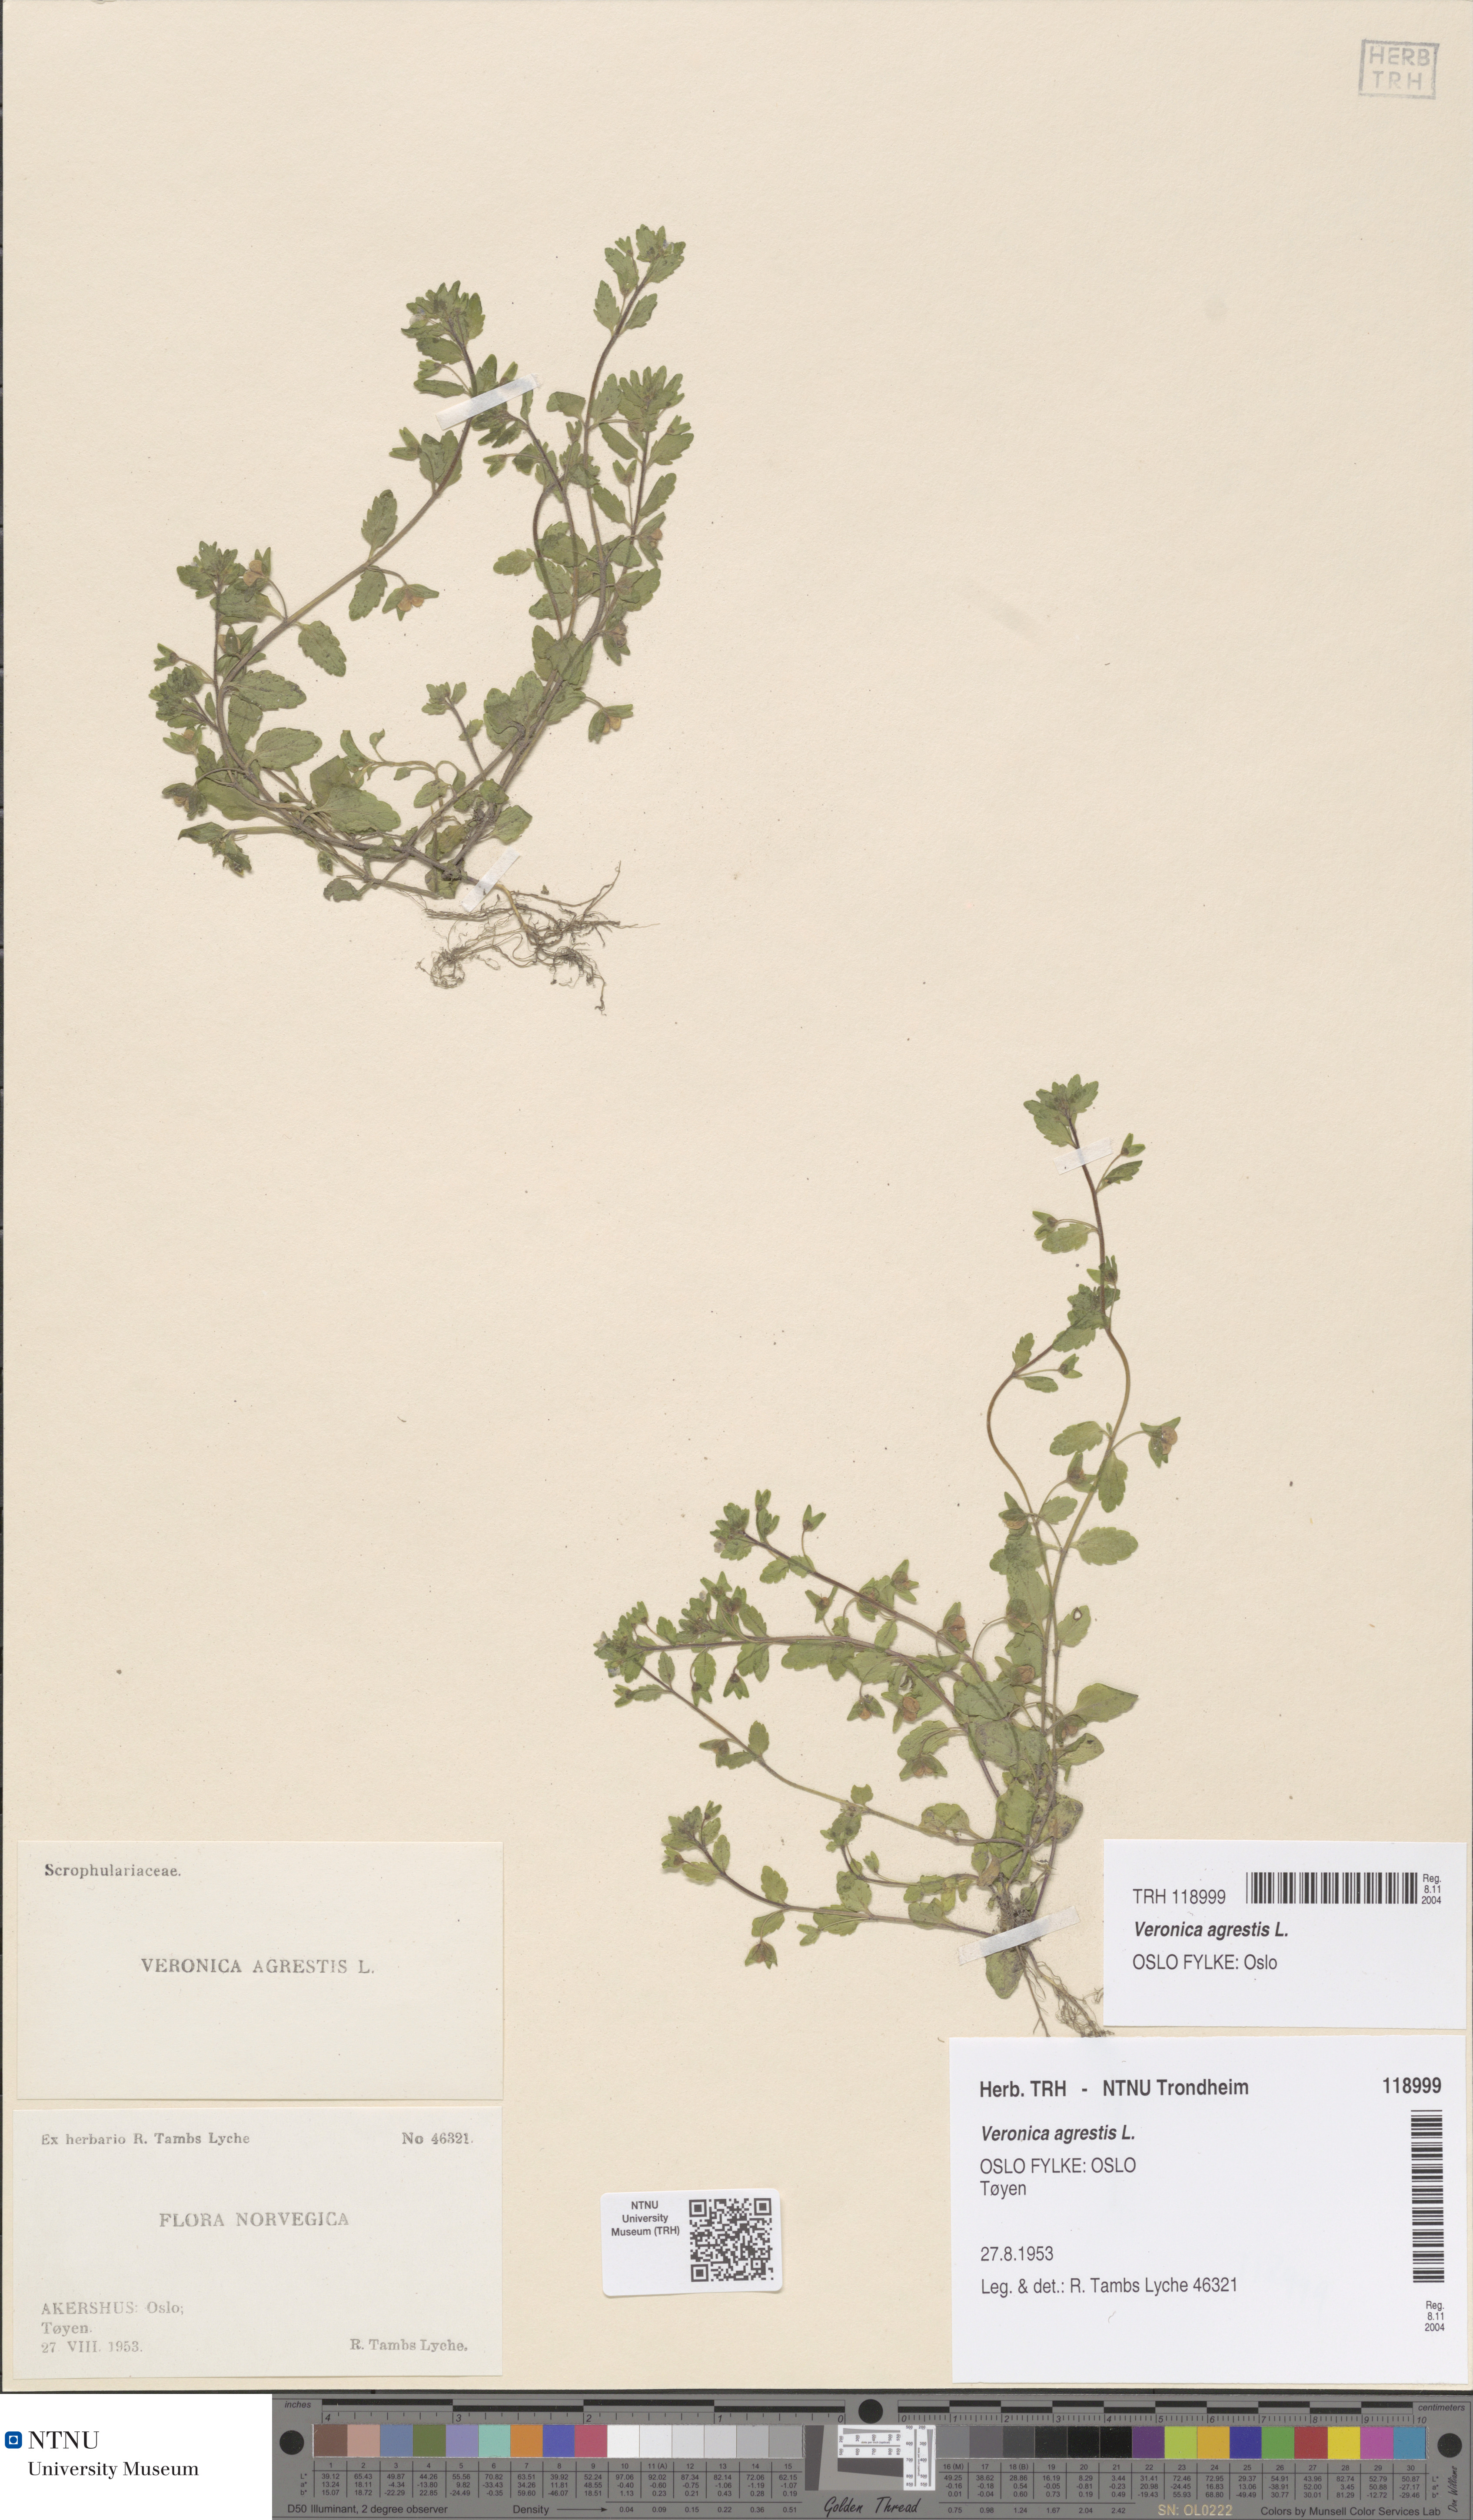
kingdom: Plantae
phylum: Tracheophyta
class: Magnoliopsida
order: Lamiales
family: Plantaginaceae
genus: Veronica
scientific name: Veronica agrestis
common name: Green field-speedwell
